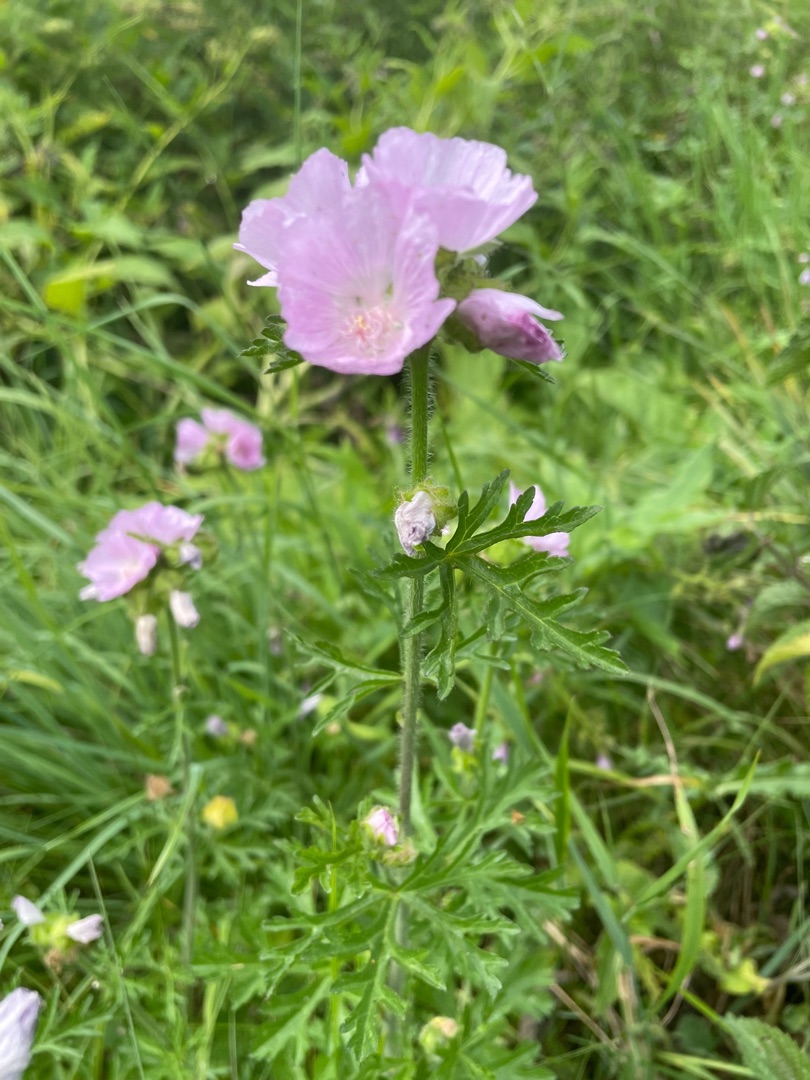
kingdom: Plantae
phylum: Tracheophyta
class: Magnoliopsida
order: Malvales
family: Malvaceae
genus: Malva
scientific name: Malva moschata
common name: Moskus-katost
